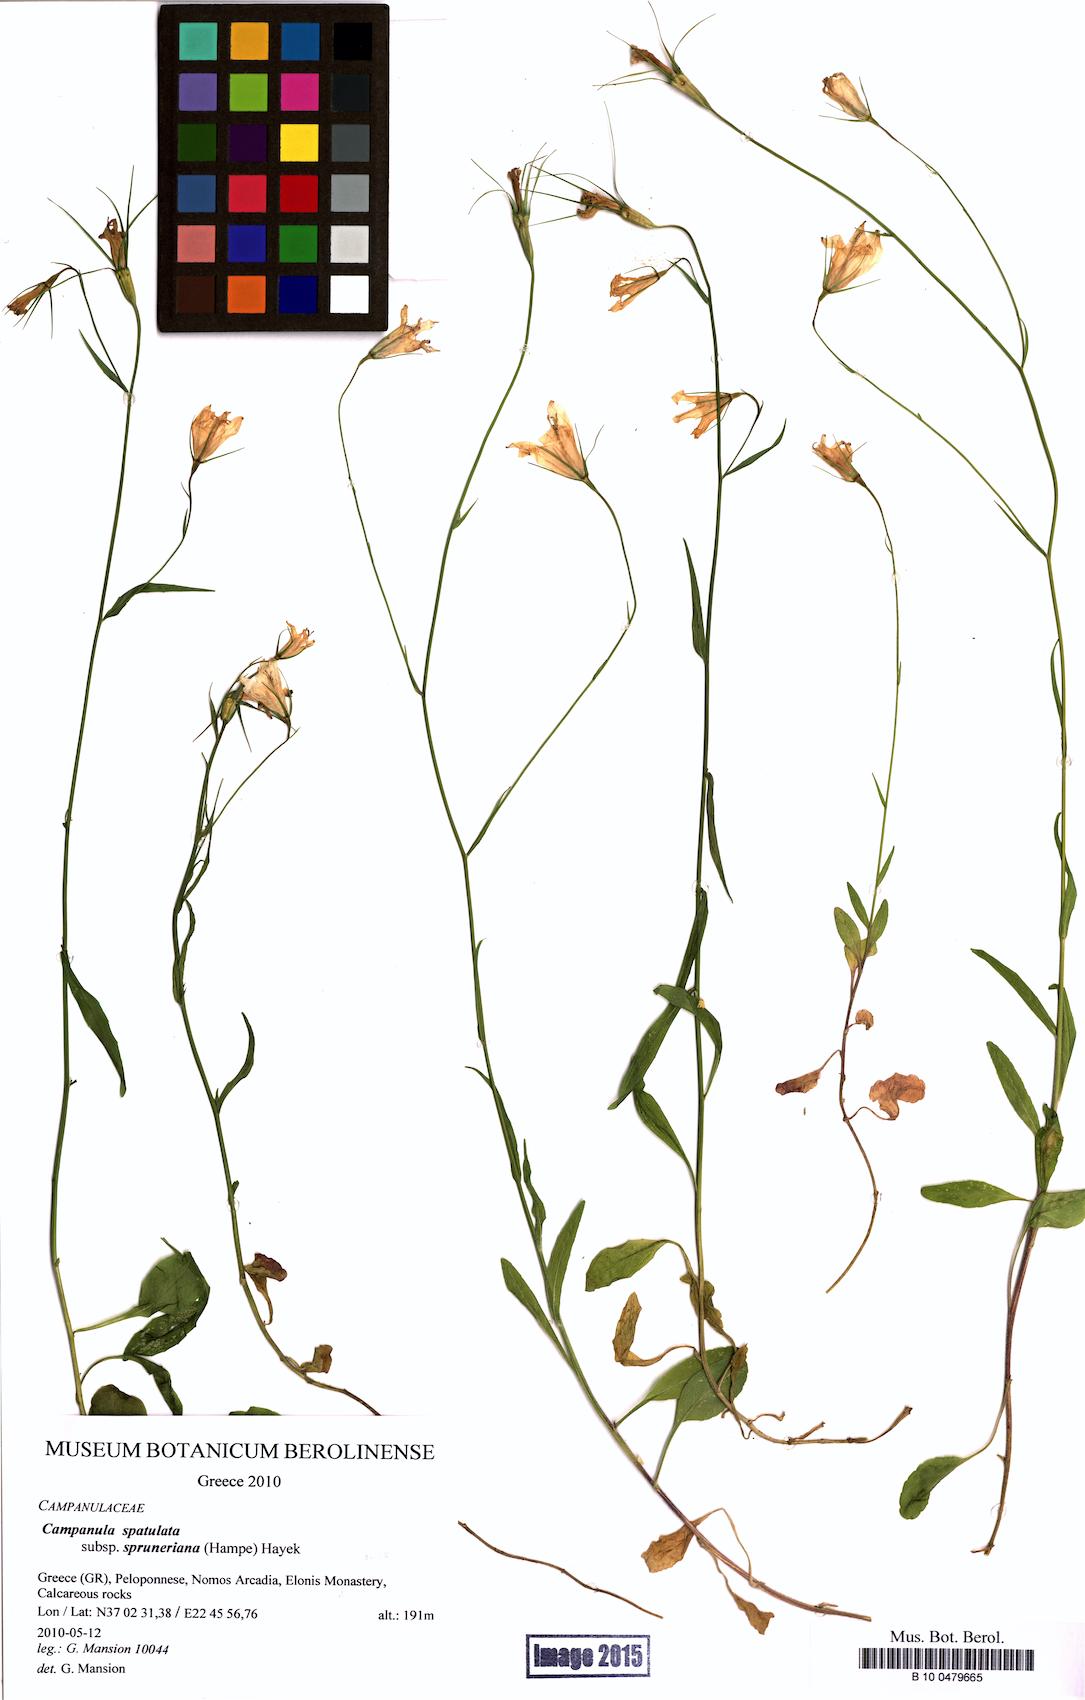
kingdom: Plantae
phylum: Tracheophyta
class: Magnoliopsida
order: Asterales
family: Campanulaceae
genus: Campanula
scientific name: Campanula spatulata
